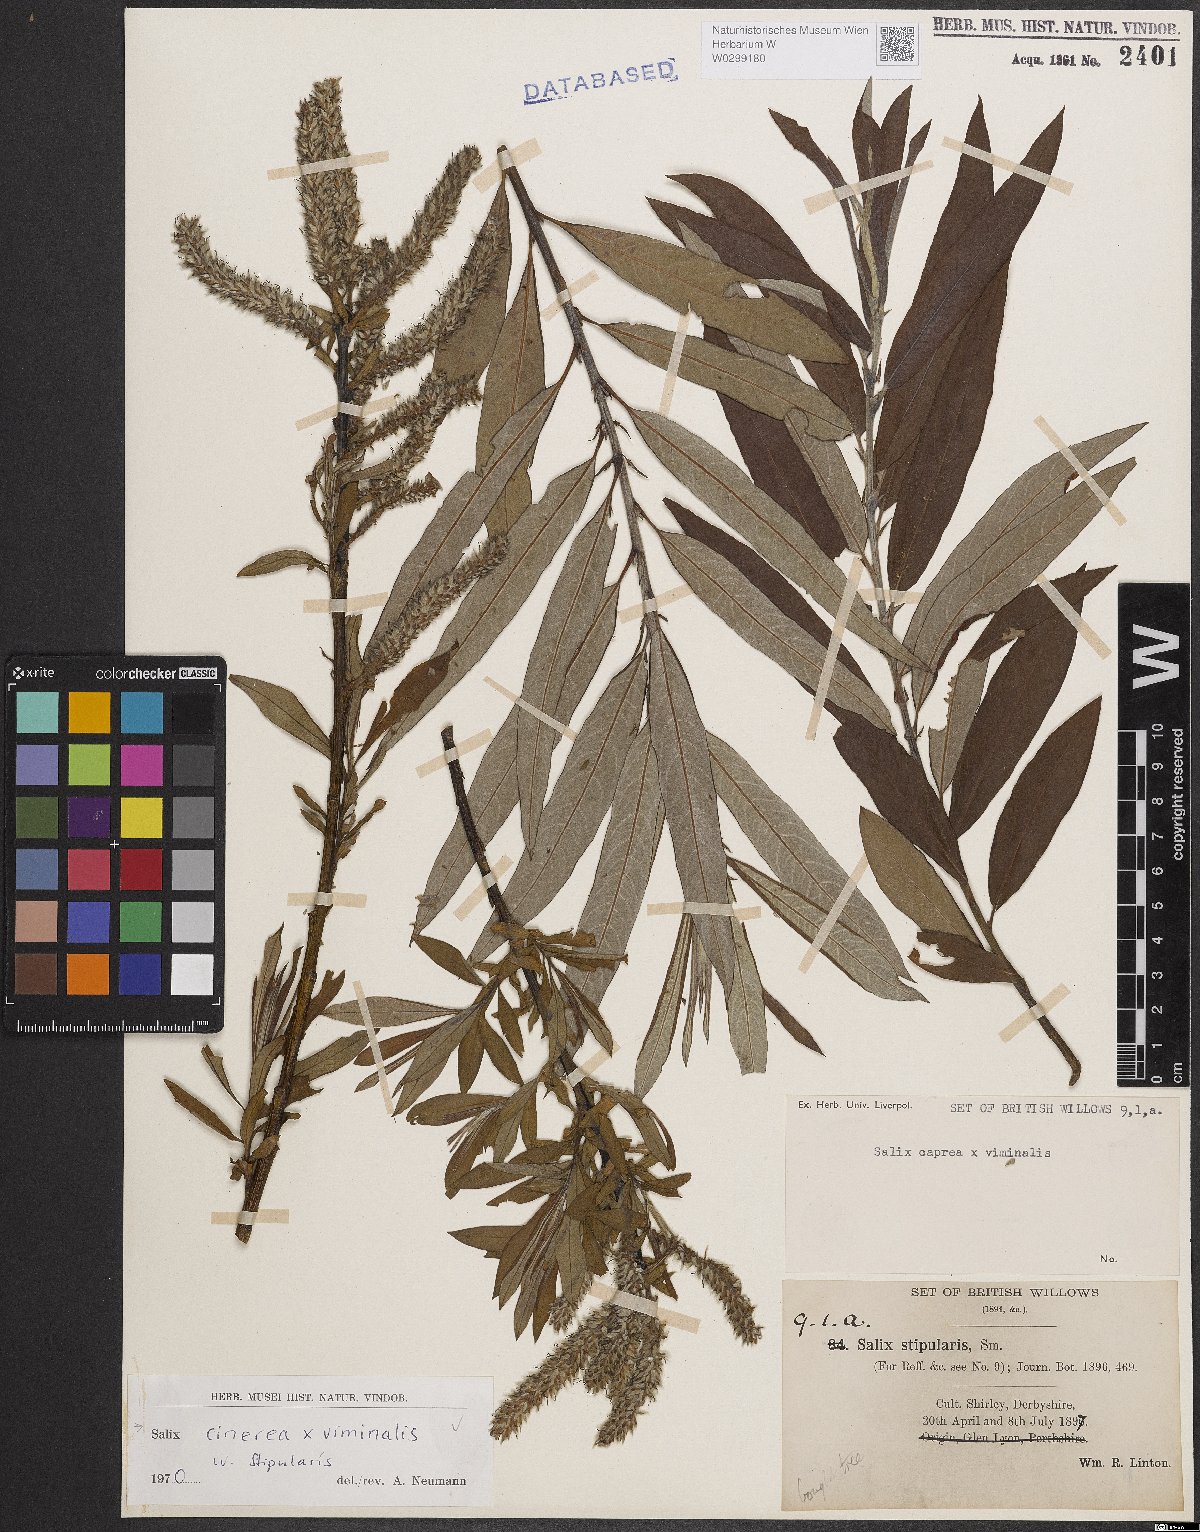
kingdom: Plantae
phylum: Tracheophyta
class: Magnoliopsida
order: Malpighiales
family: Salicaceae
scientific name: Salicaceae
